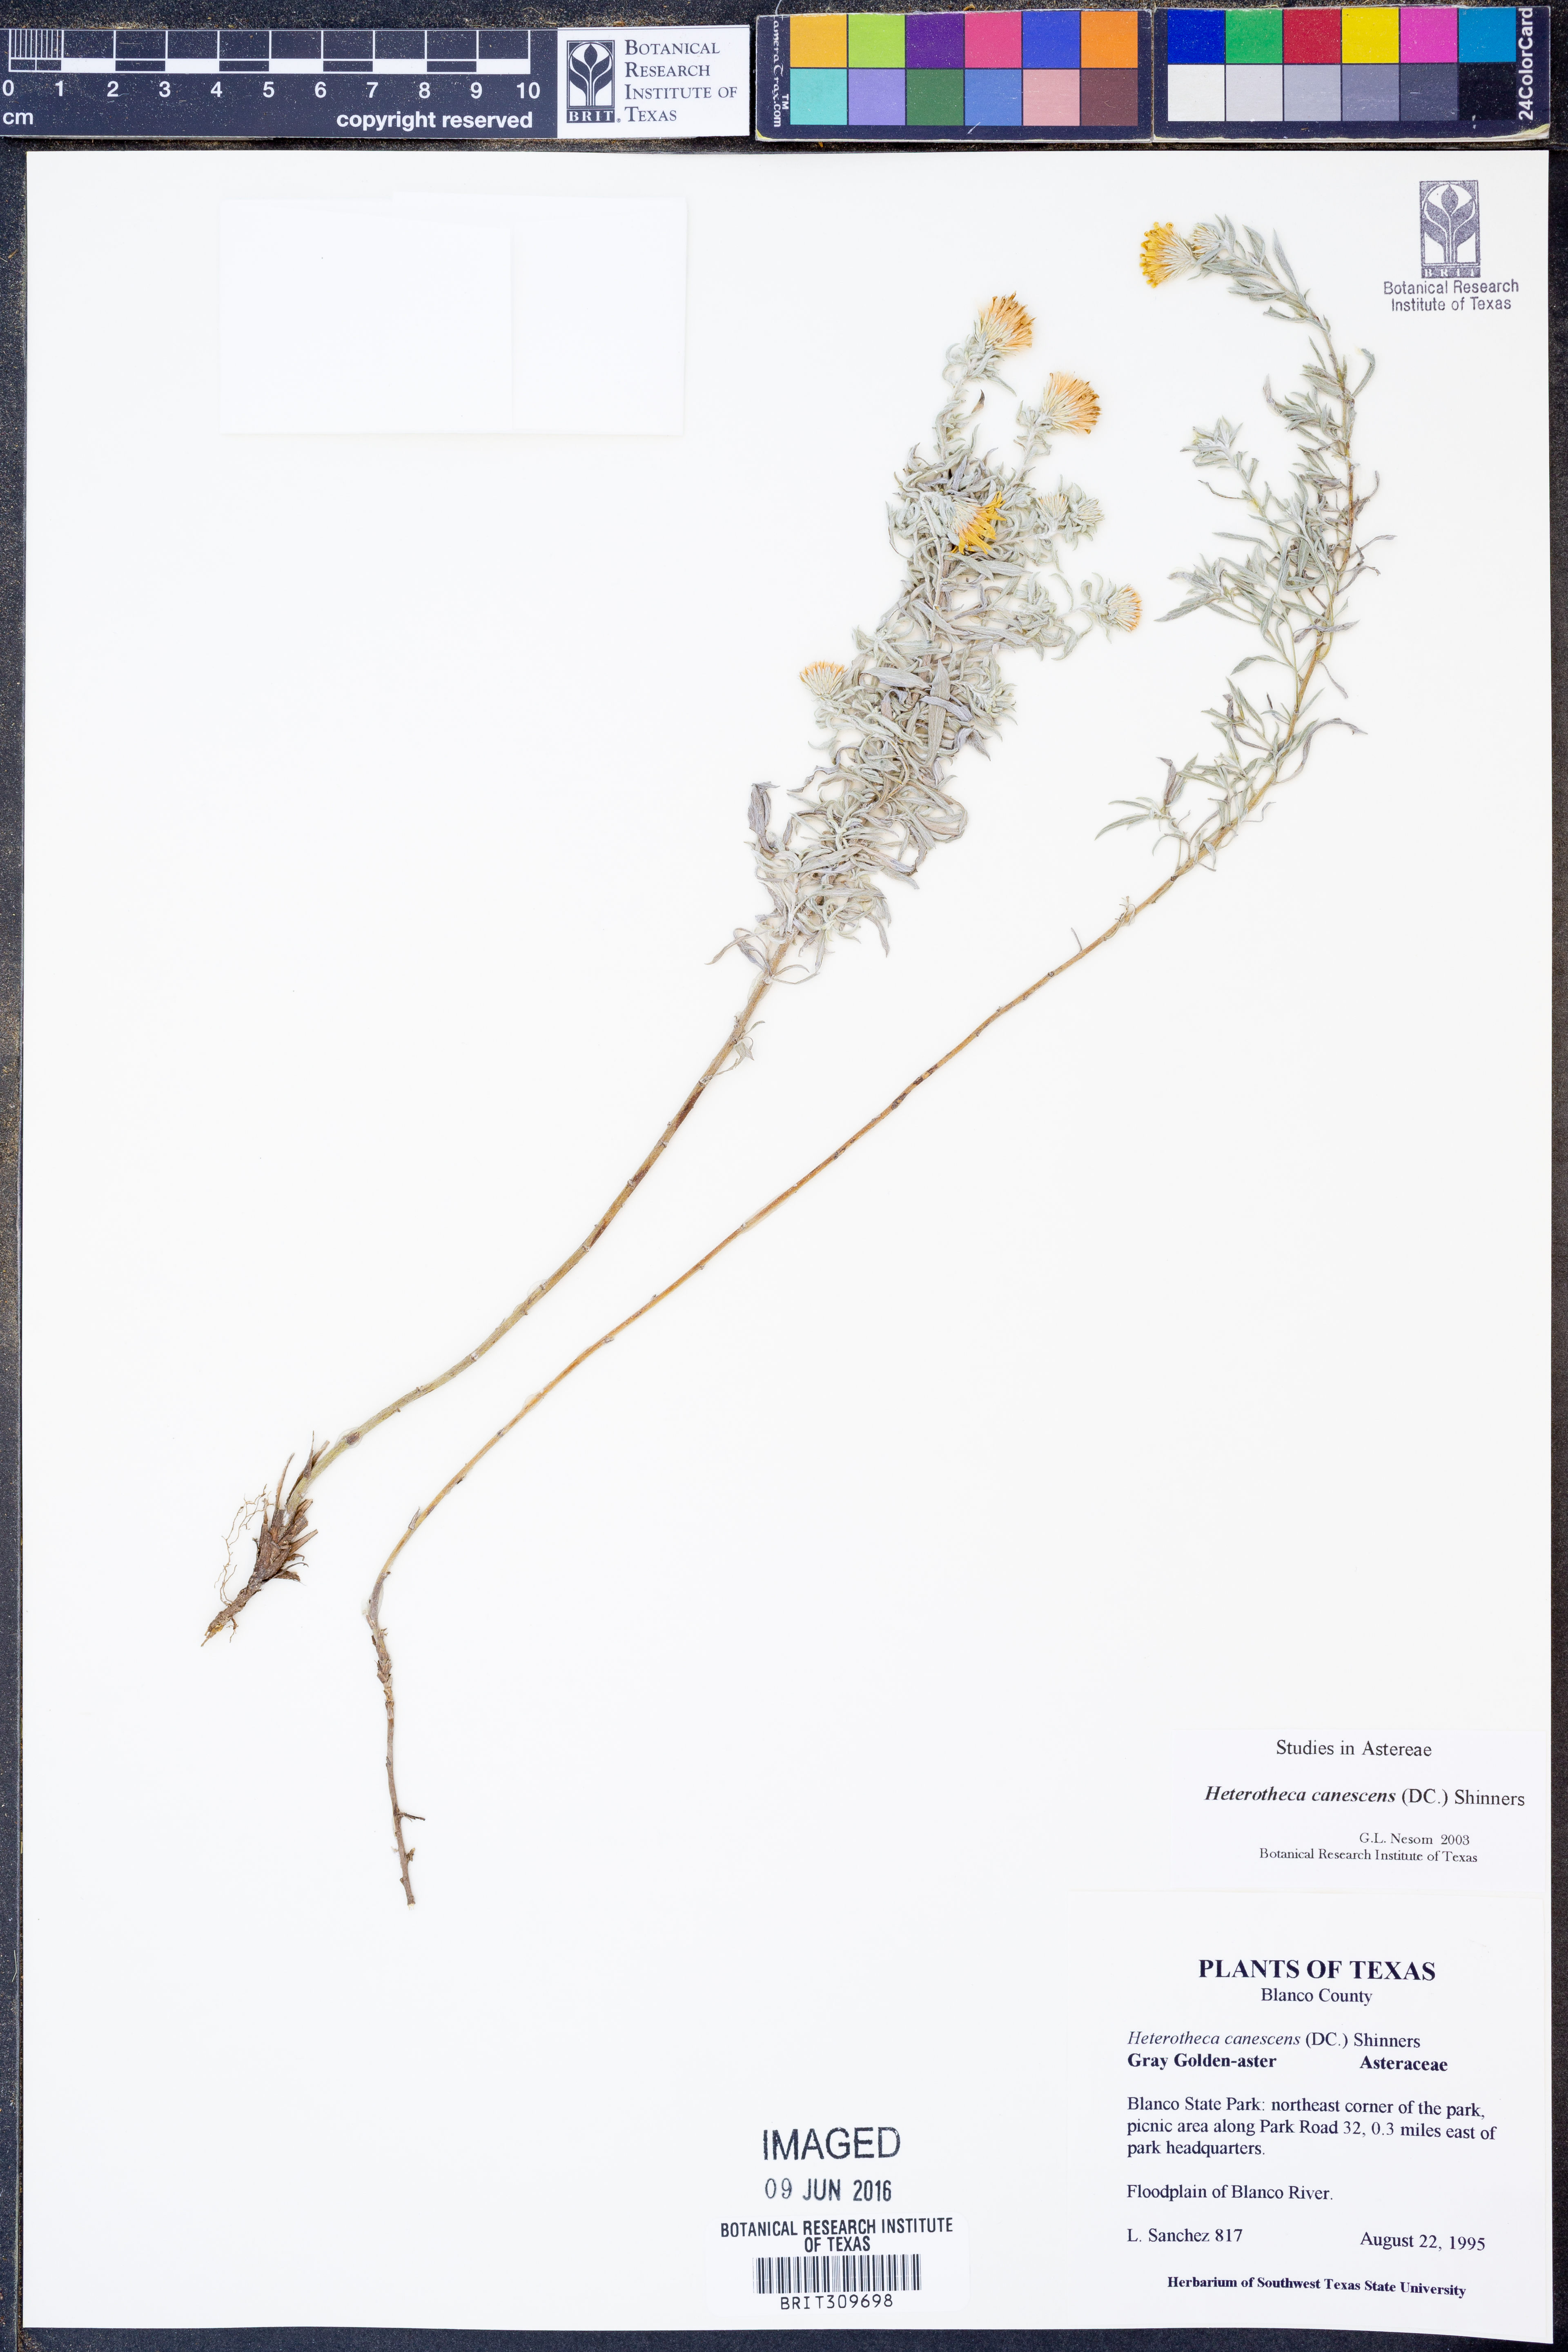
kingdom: Plantae
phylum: Tracheophyta
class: Magnoliopsida
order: Asterales
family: Asteraceae
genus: Heterotheca
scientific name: Heterotheca canescens
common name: Hoary golden-aster
